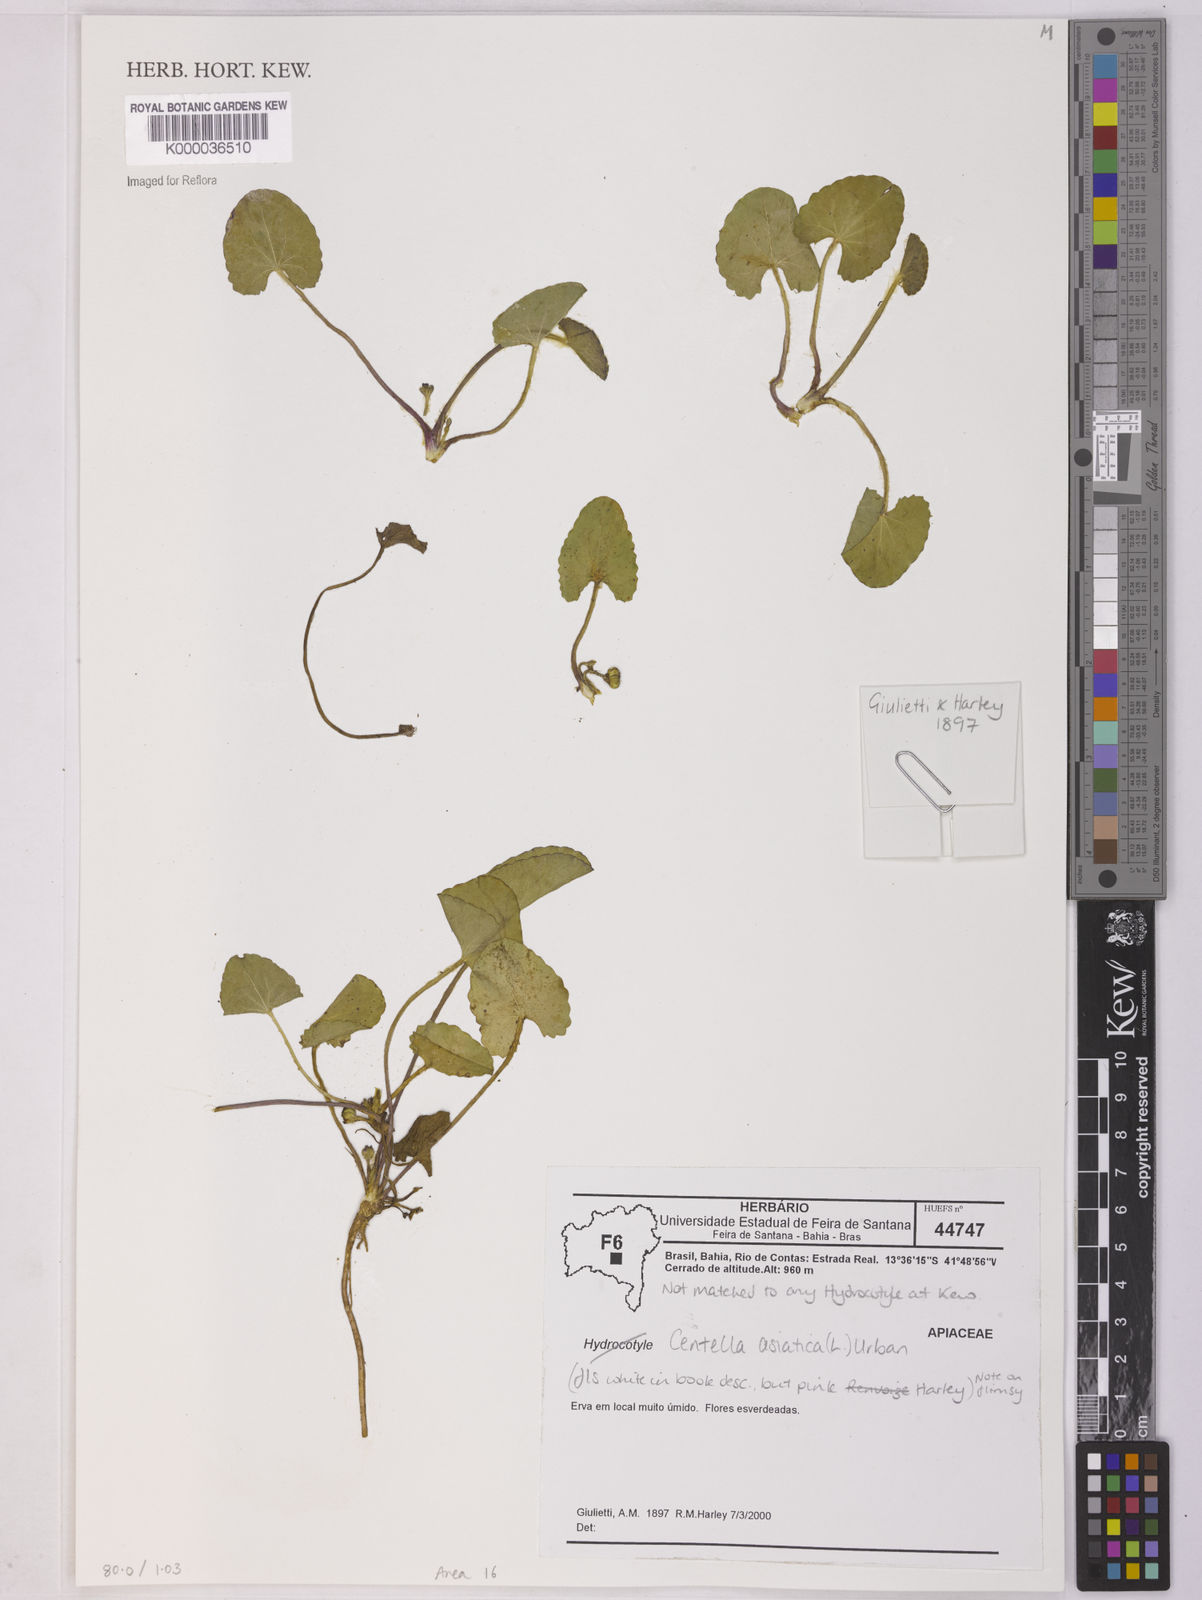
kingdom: Plantae
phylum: Tracheophyta
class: Magnoliopsida
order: Apiales
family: Apiaceae
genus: Centella
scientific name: Centella asiatica
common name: Spadeleaf
